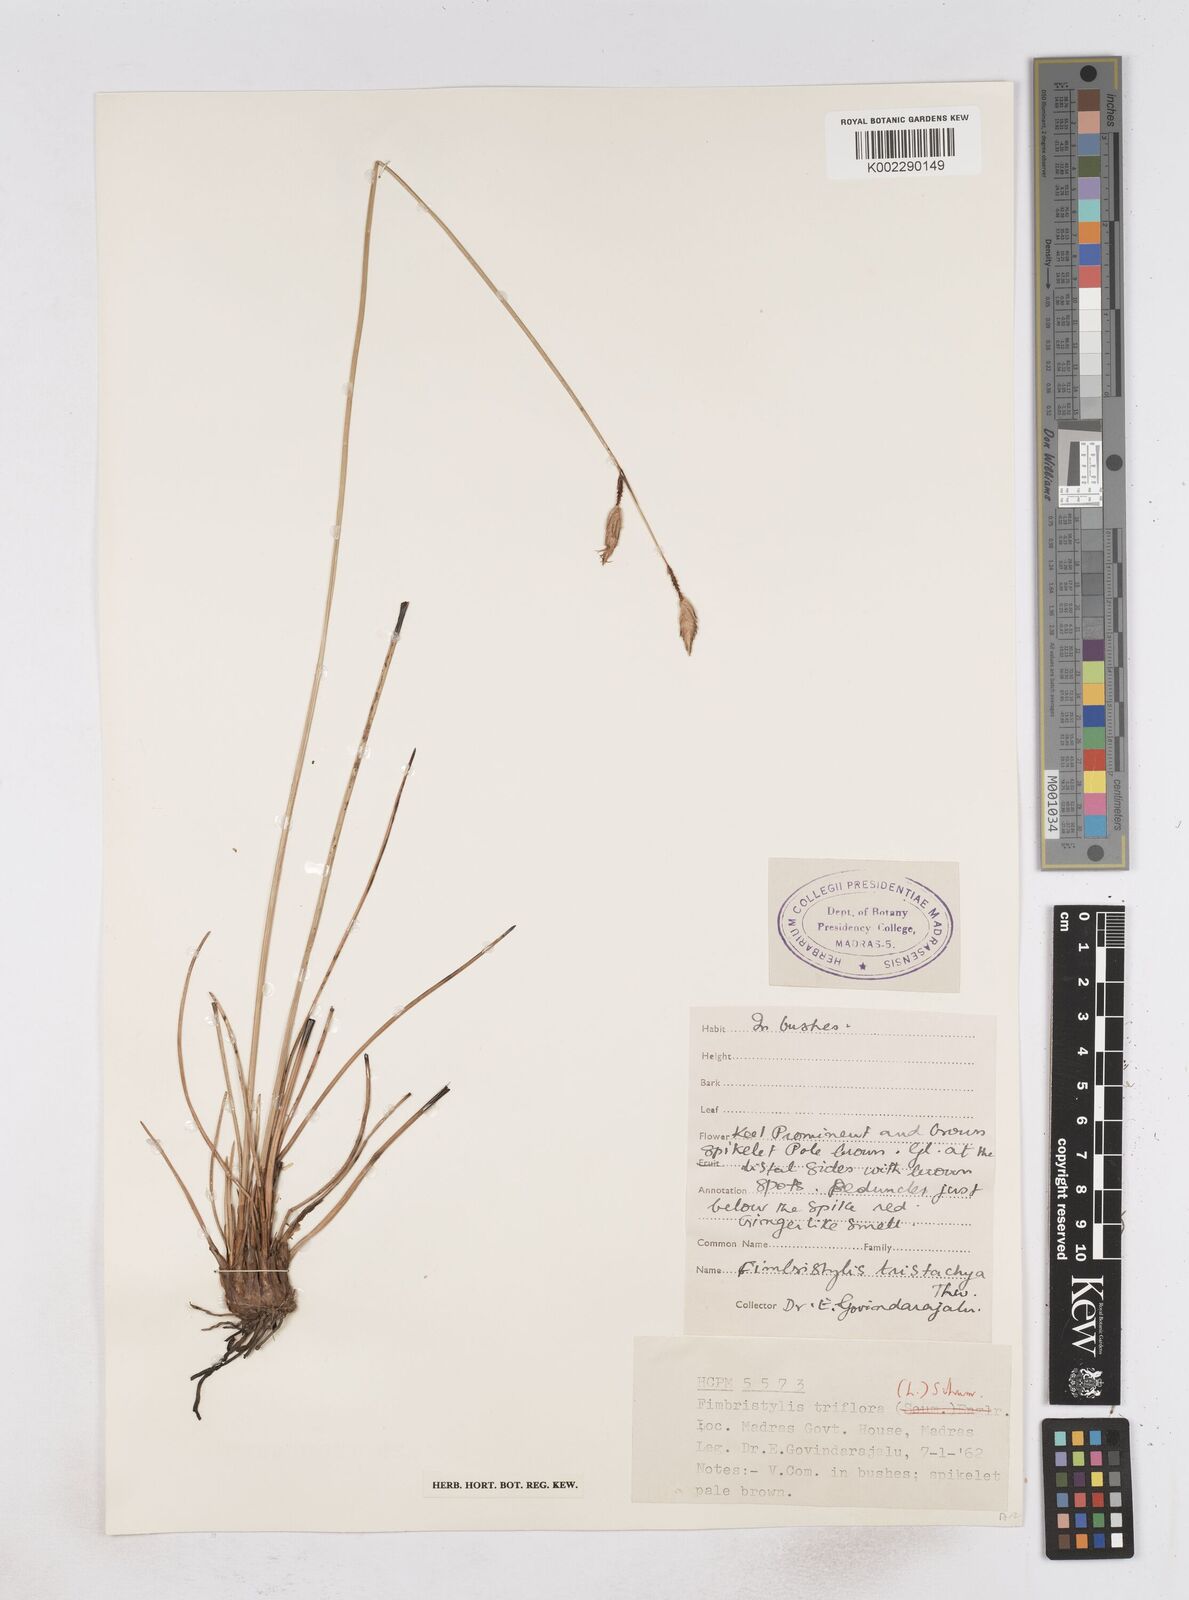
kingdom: Plantae
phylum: Tracheophyta
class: Liliopsida
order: Poales
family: Cyperaceae
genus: Abildgaardia
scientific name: Abildgaardia triflora
